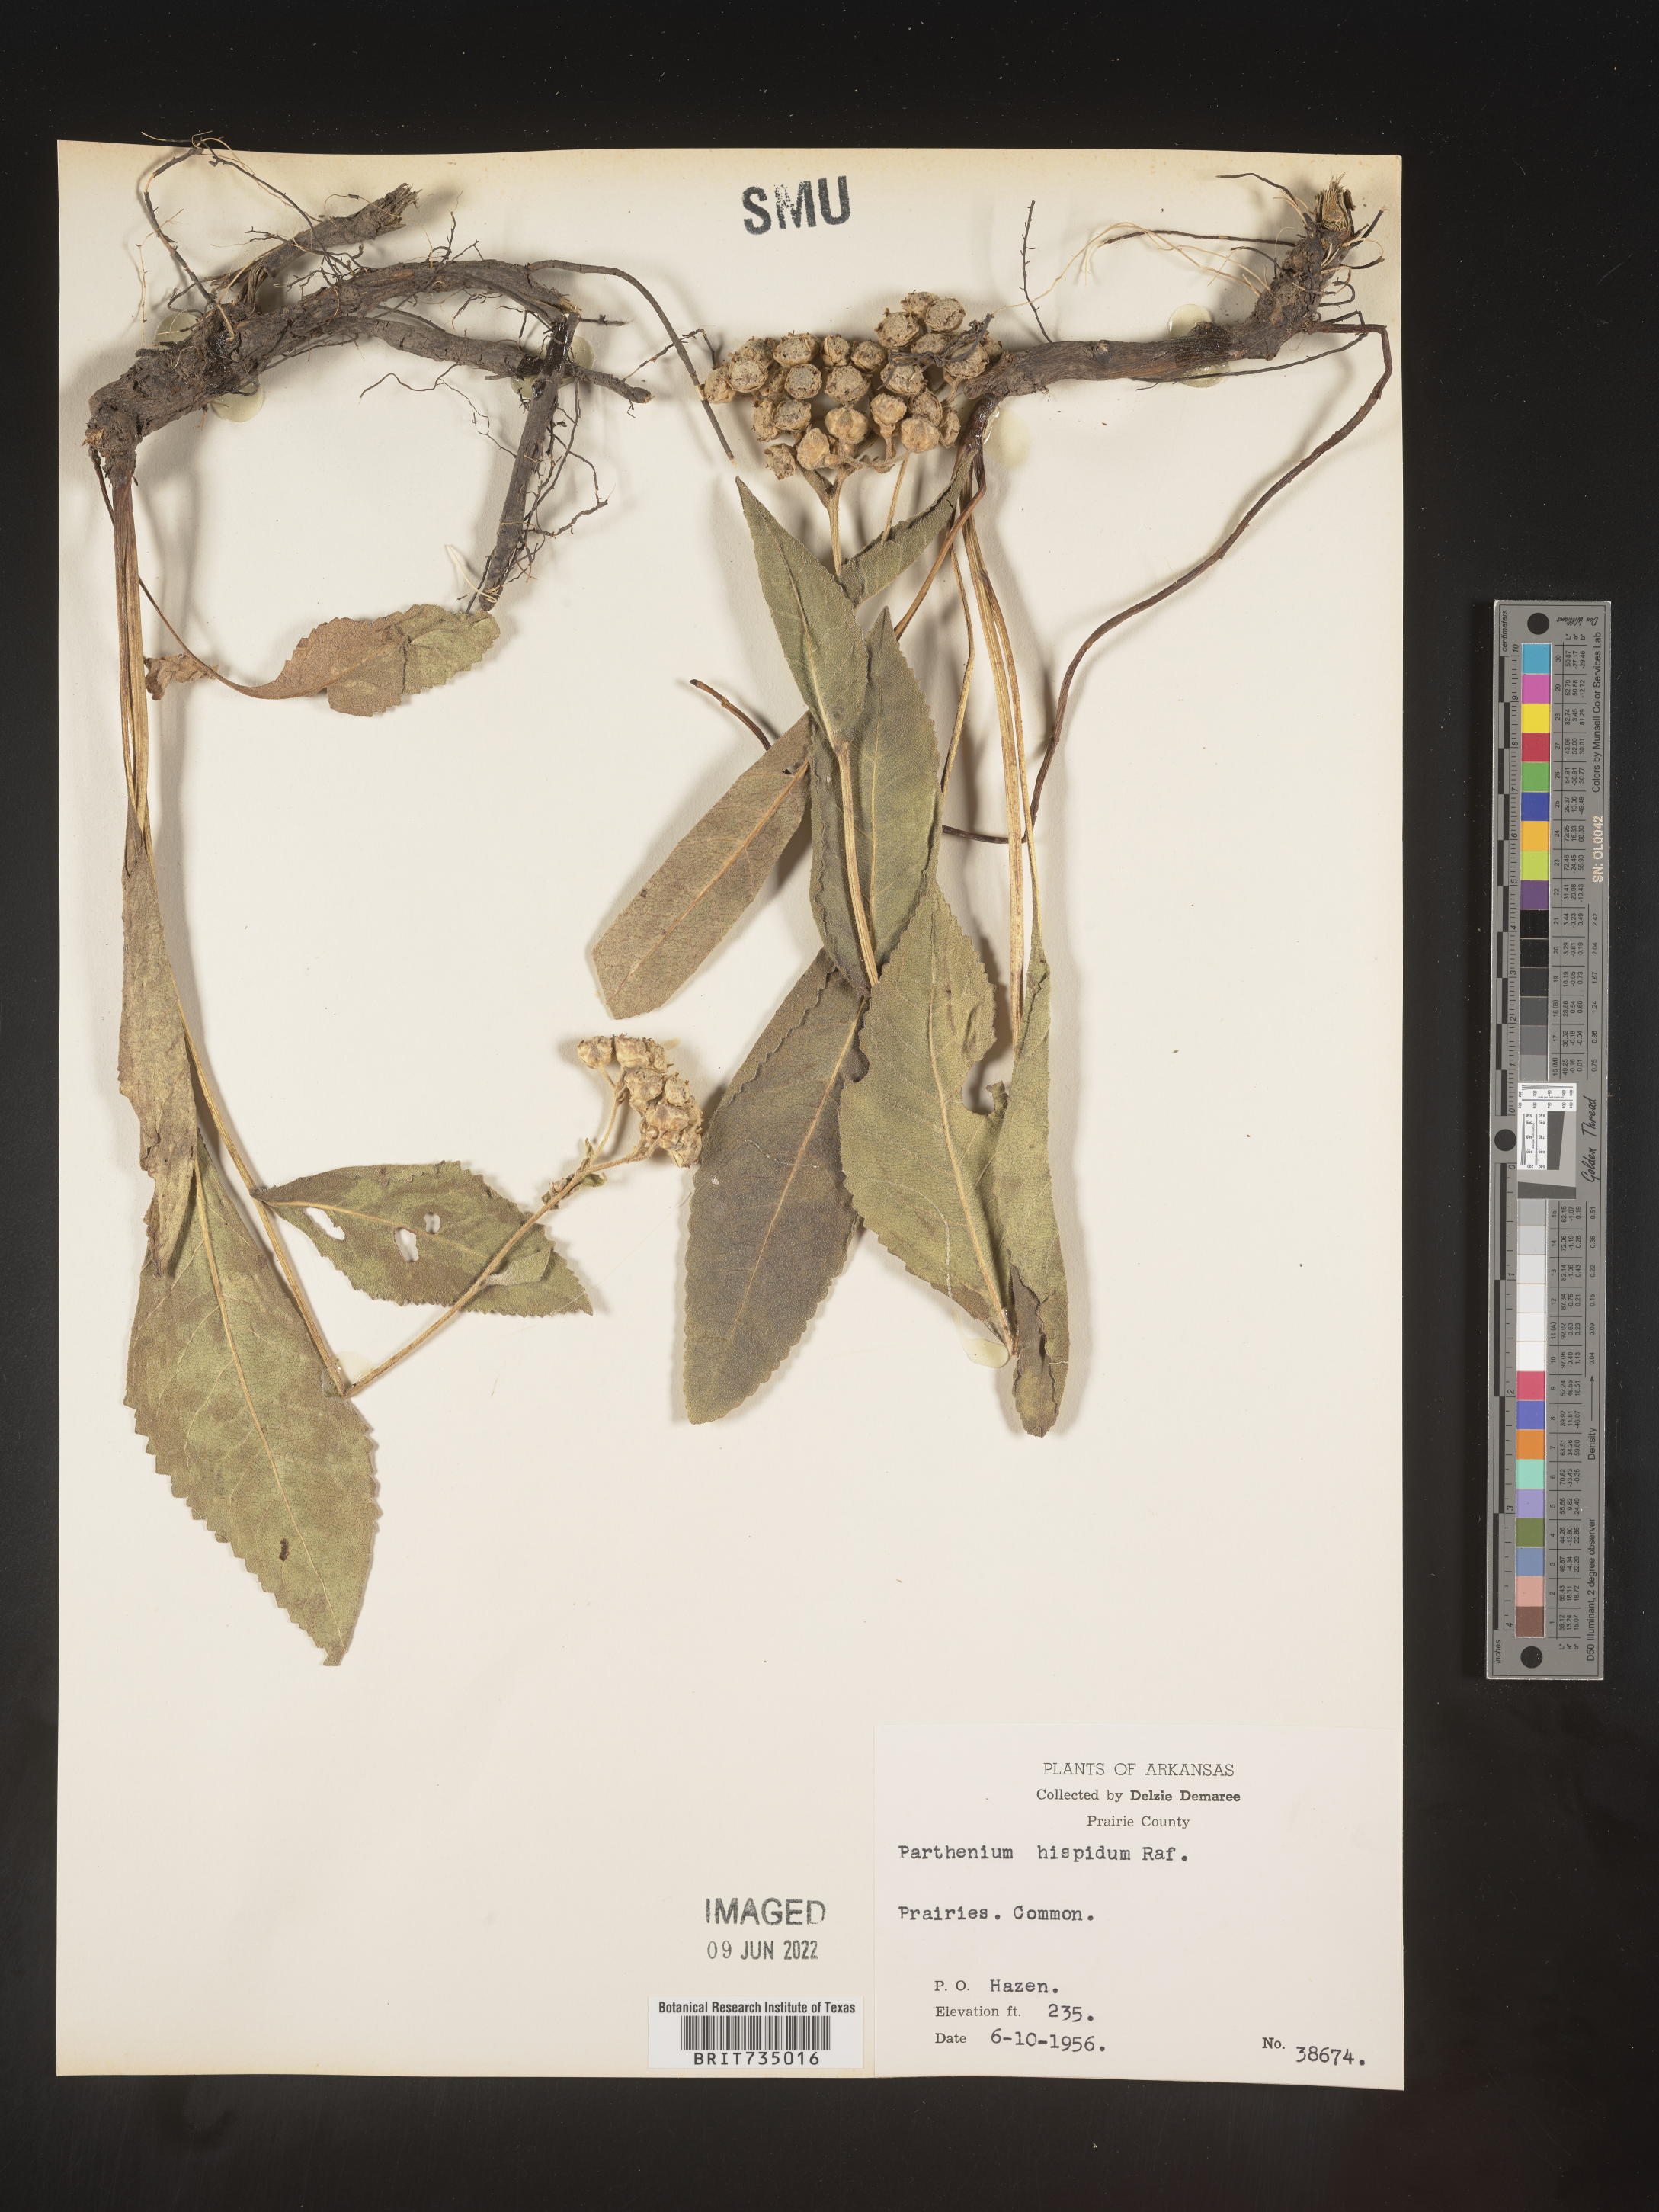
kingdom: Plantae
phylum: Tracheophyta
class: Magnoliopsida
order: Asterales
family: Asteraceae
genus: Parthenium
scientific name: Parthenium hispidum
